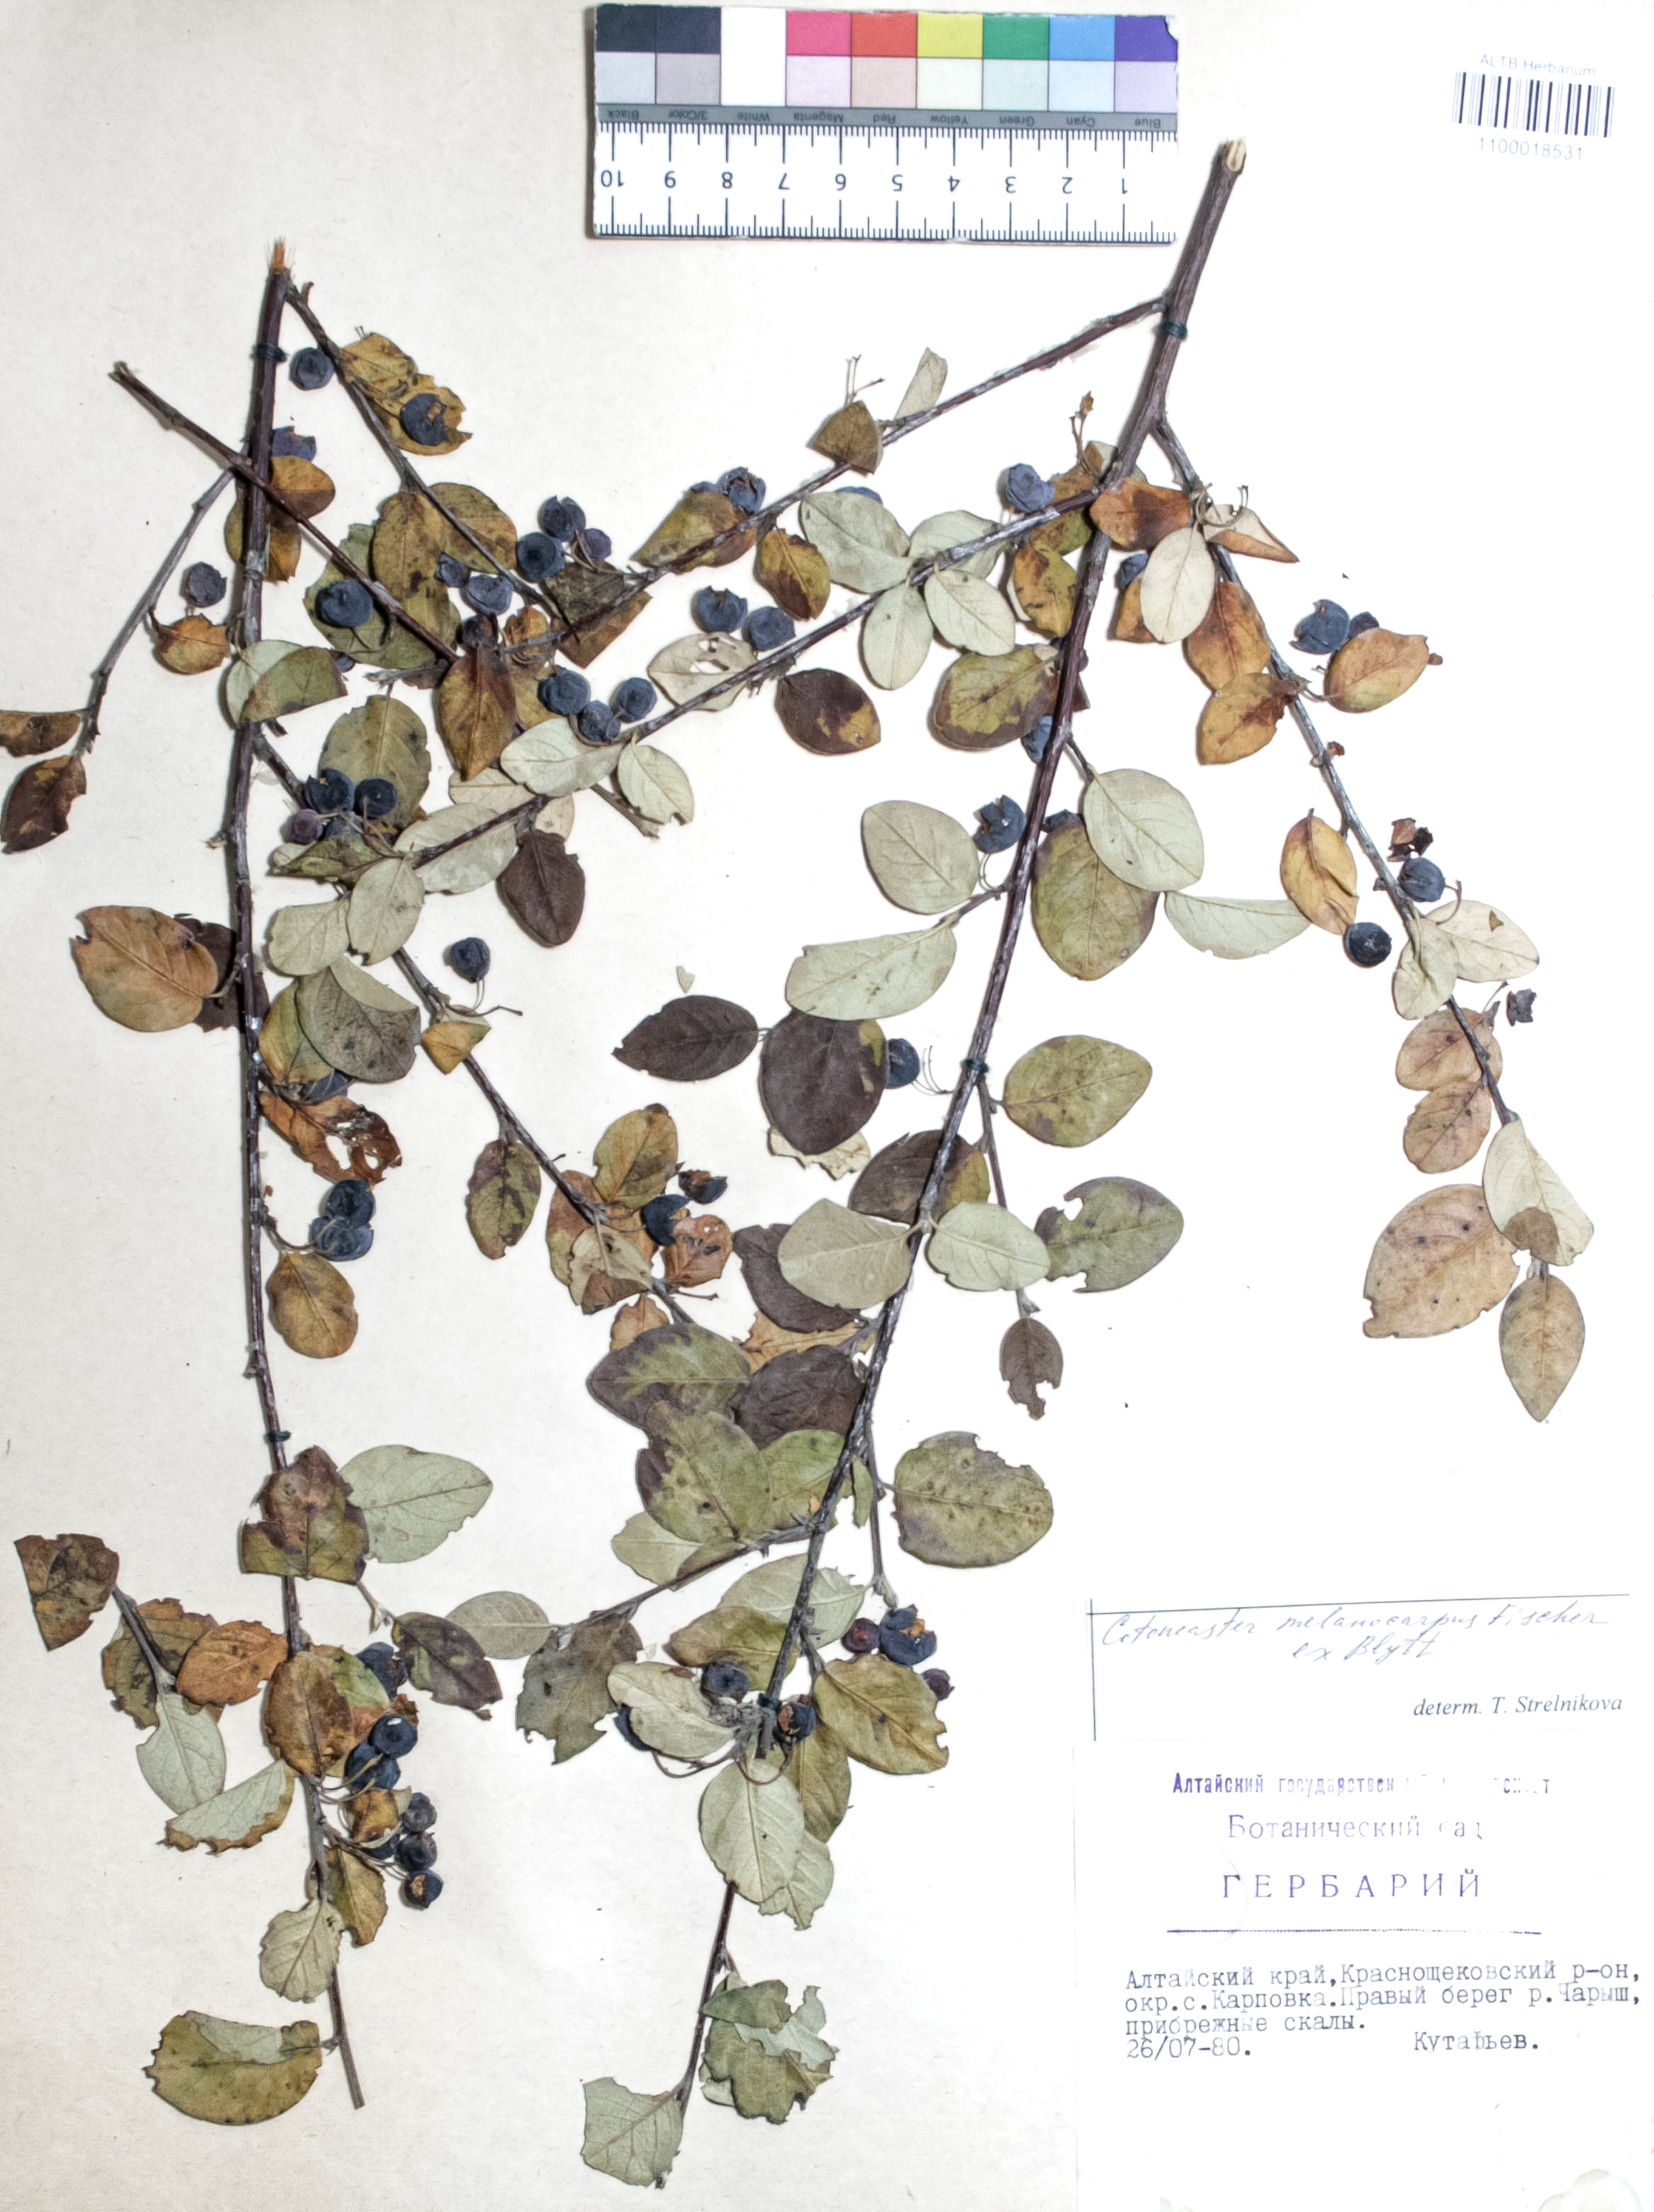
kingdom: Plantae
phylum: Tracheophyta
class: Magnoliopsida
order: Rosales
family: Rosaceae
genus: Cotoneaster
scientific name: Cotoneaster niger
